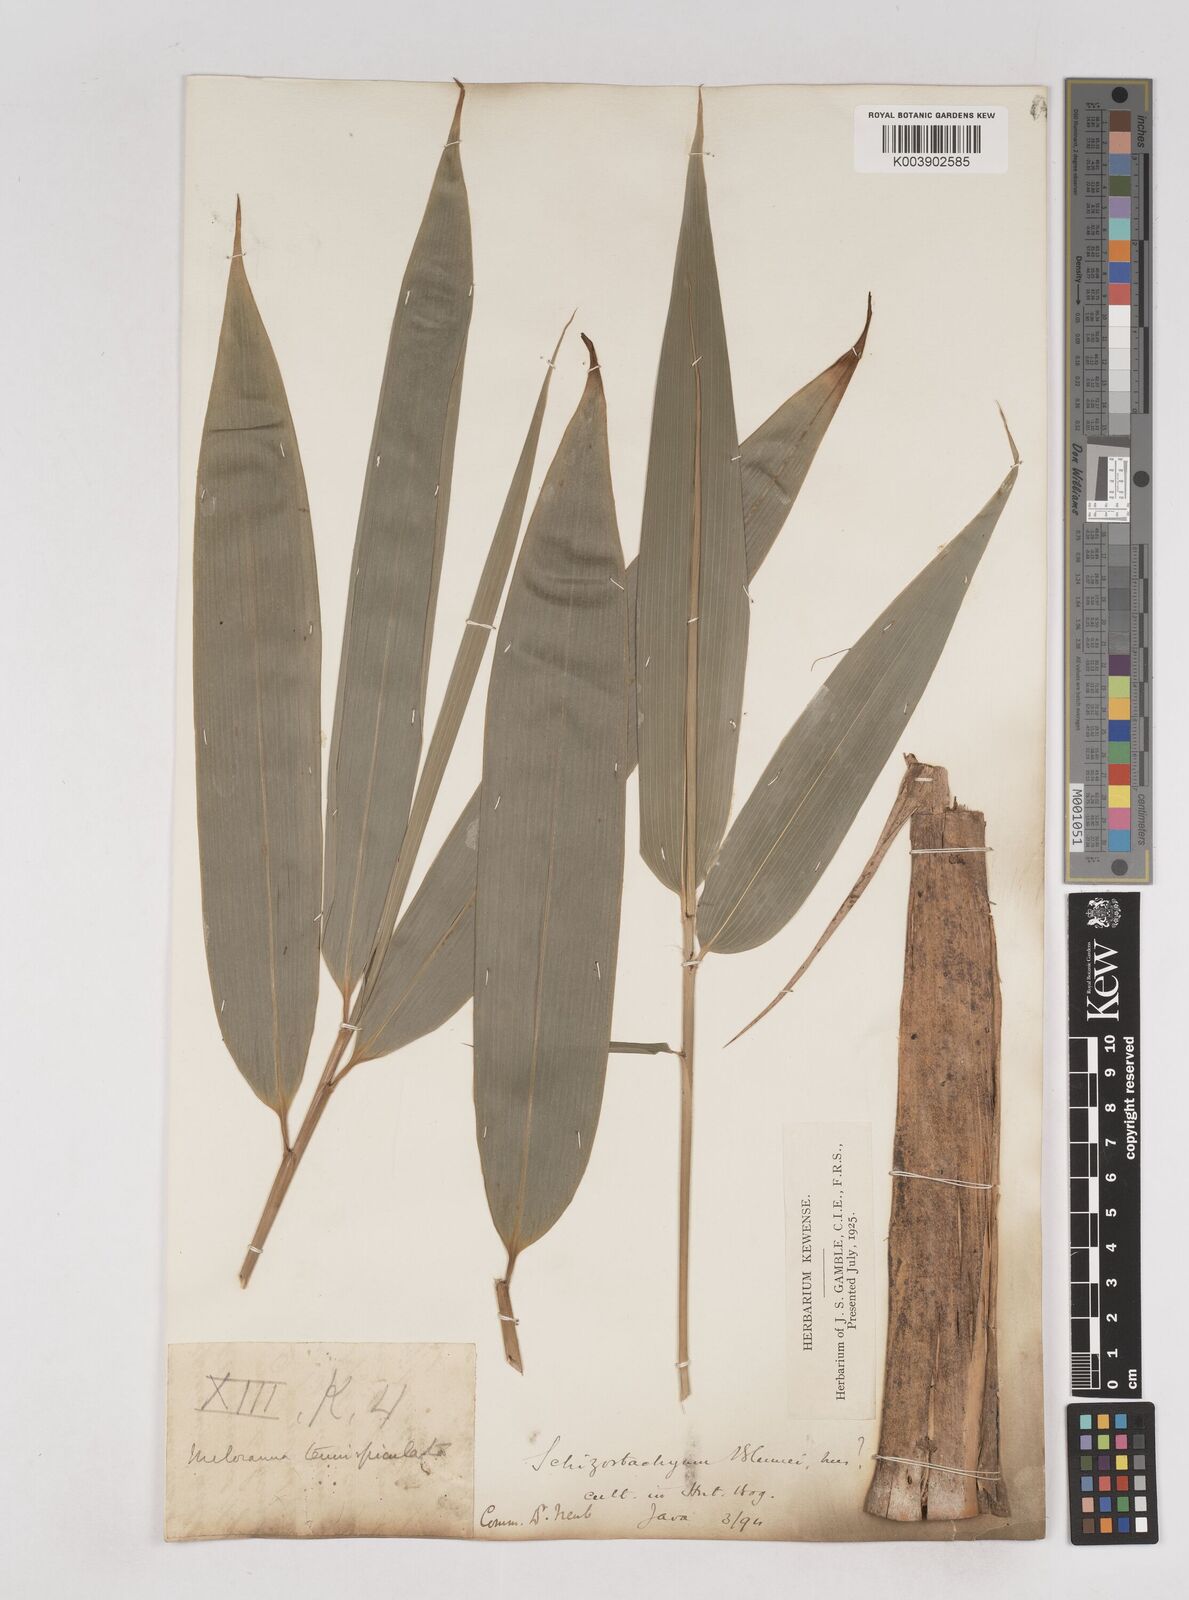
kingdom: Plantae
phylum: Tracheophyta
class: Liliopsida
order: Poales
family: Poaceae
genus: Schizostachyum
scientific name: Schizostachyum
